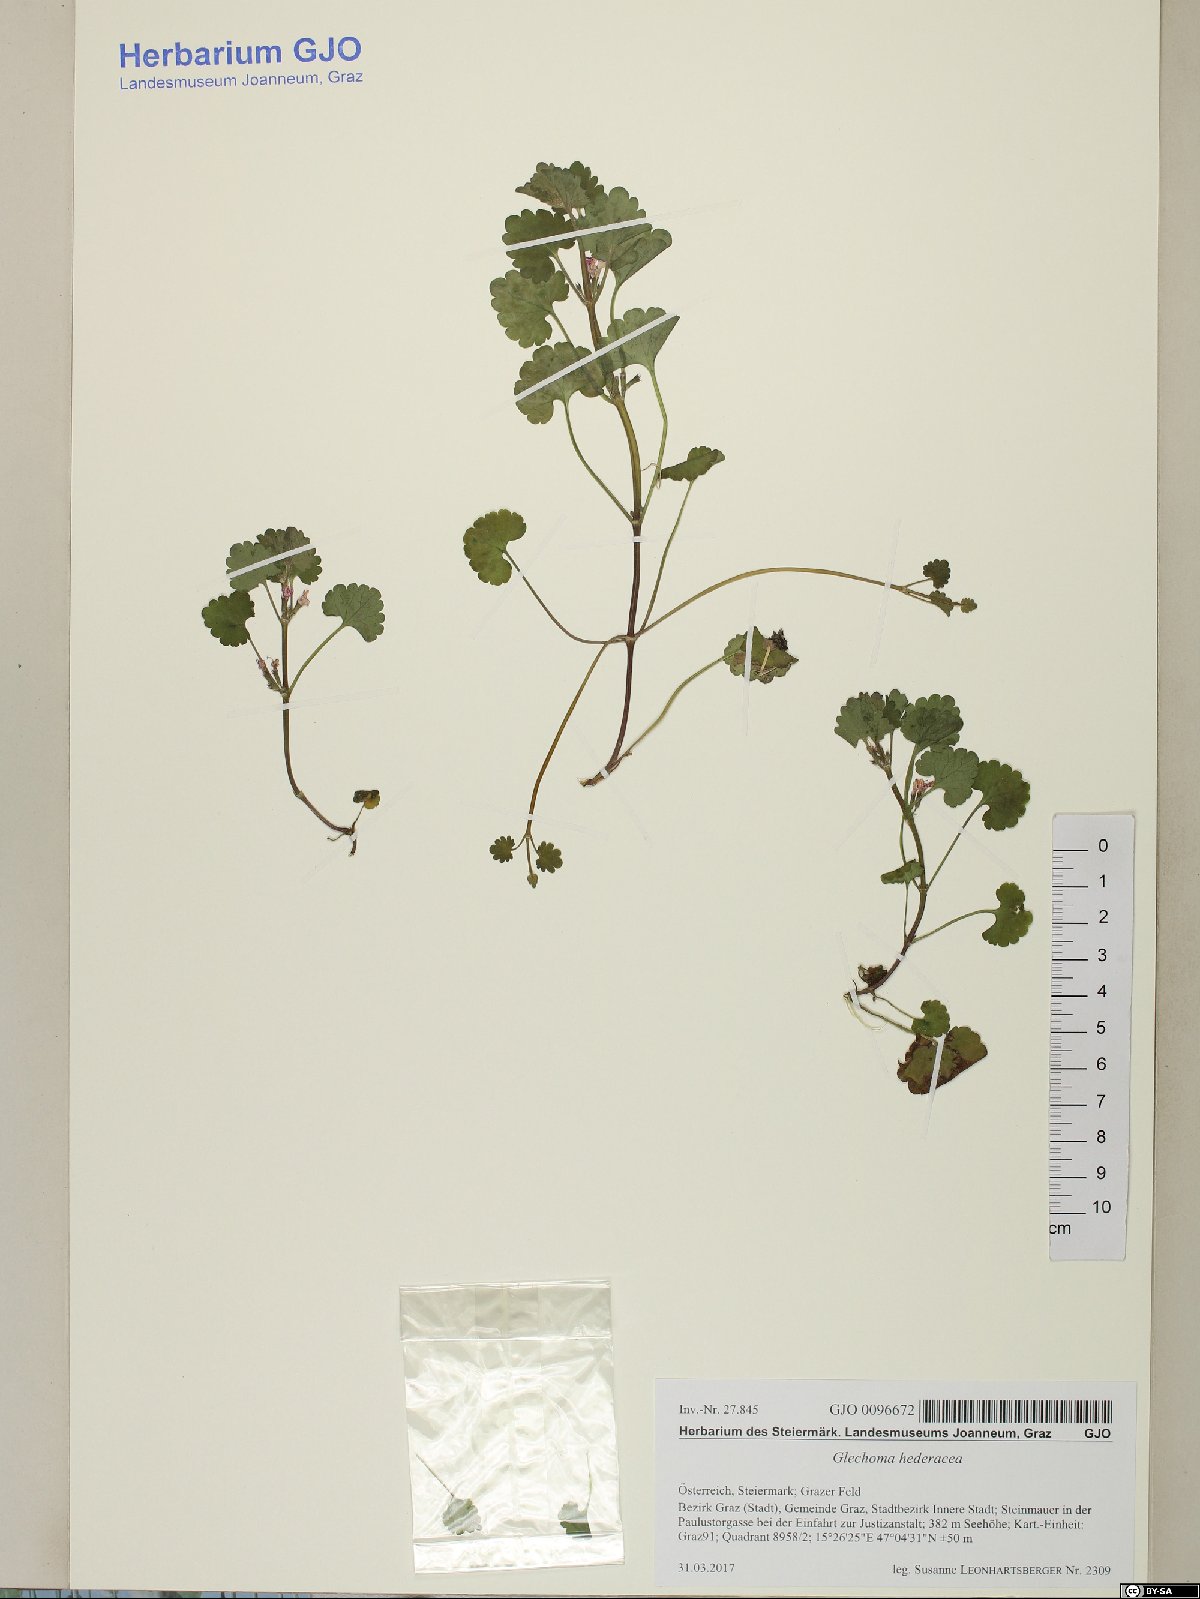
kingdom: Plantae
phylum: Tracheophyta
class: Magnoliopsida
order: Lamiales
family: Lamiaceae
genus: Glechoma
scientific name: Glechoma hederacea
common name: Ground ivy
